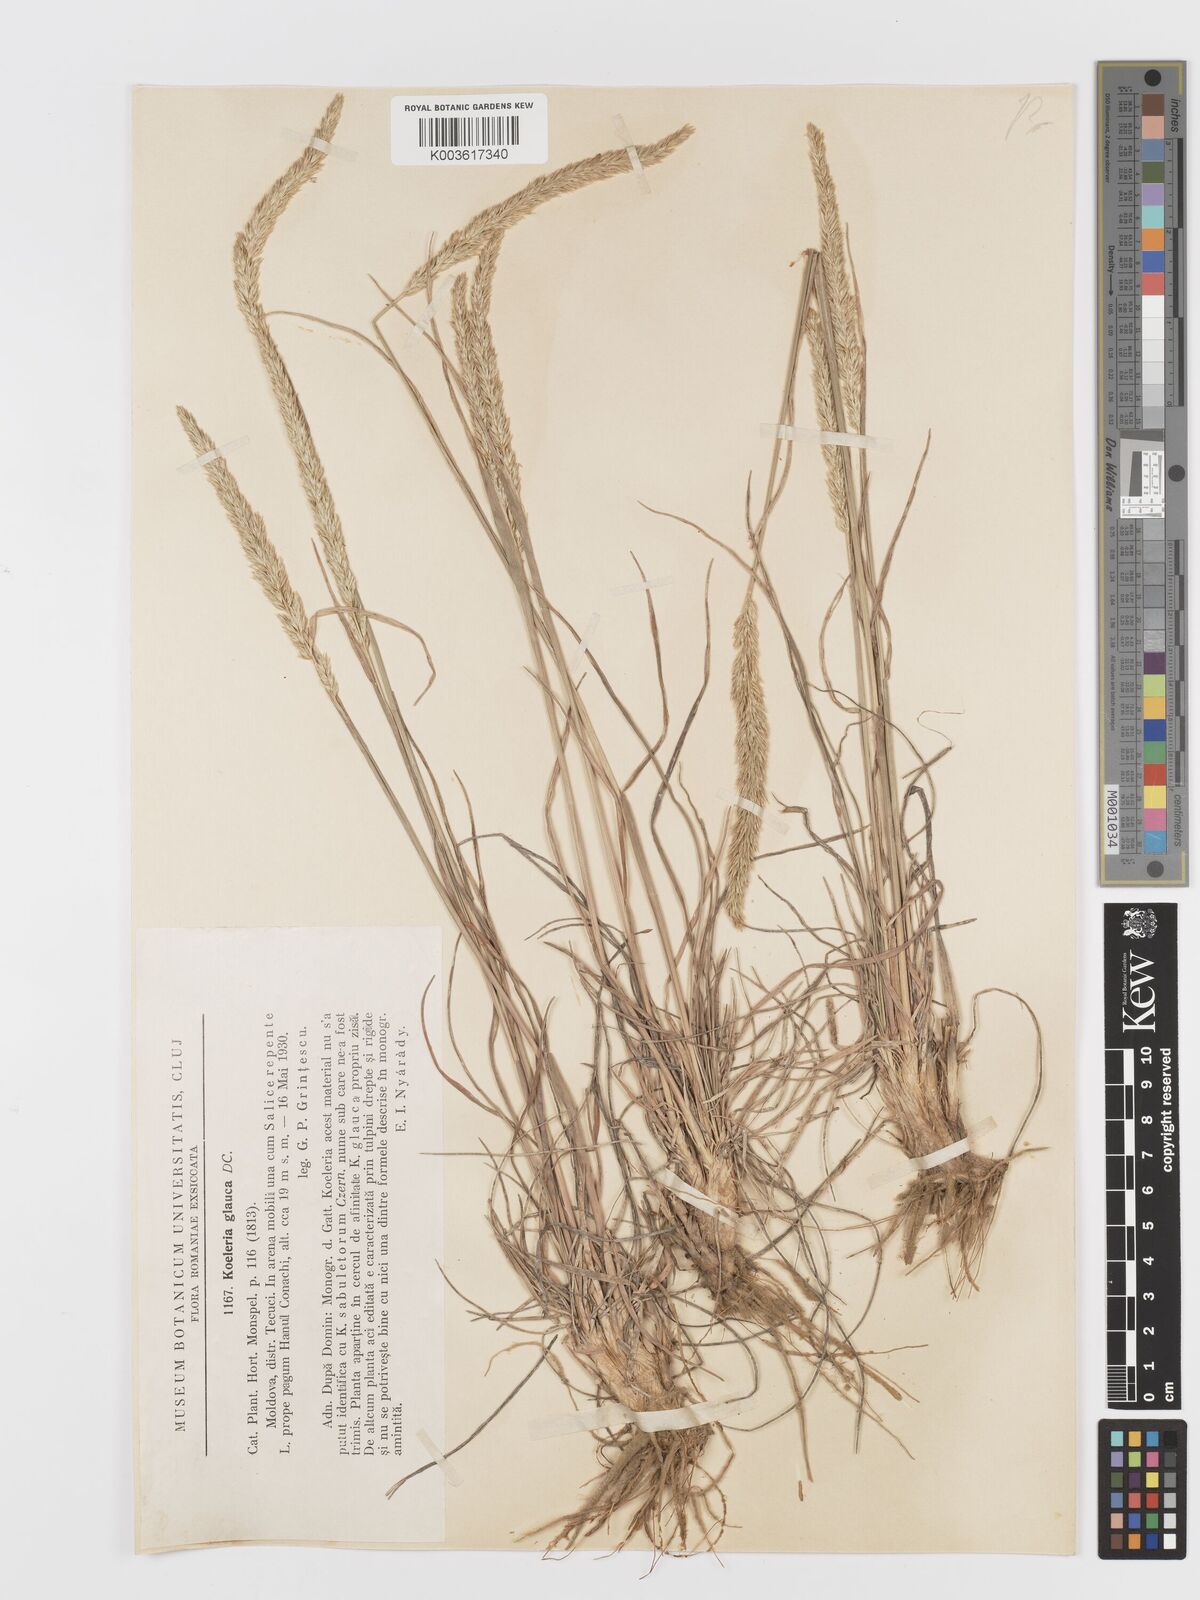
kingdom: Plantae
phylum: Tracheophyta
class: Liliopsida
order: Poales
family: Poaceae
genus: Koeleria
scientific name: Koeleria glauca
